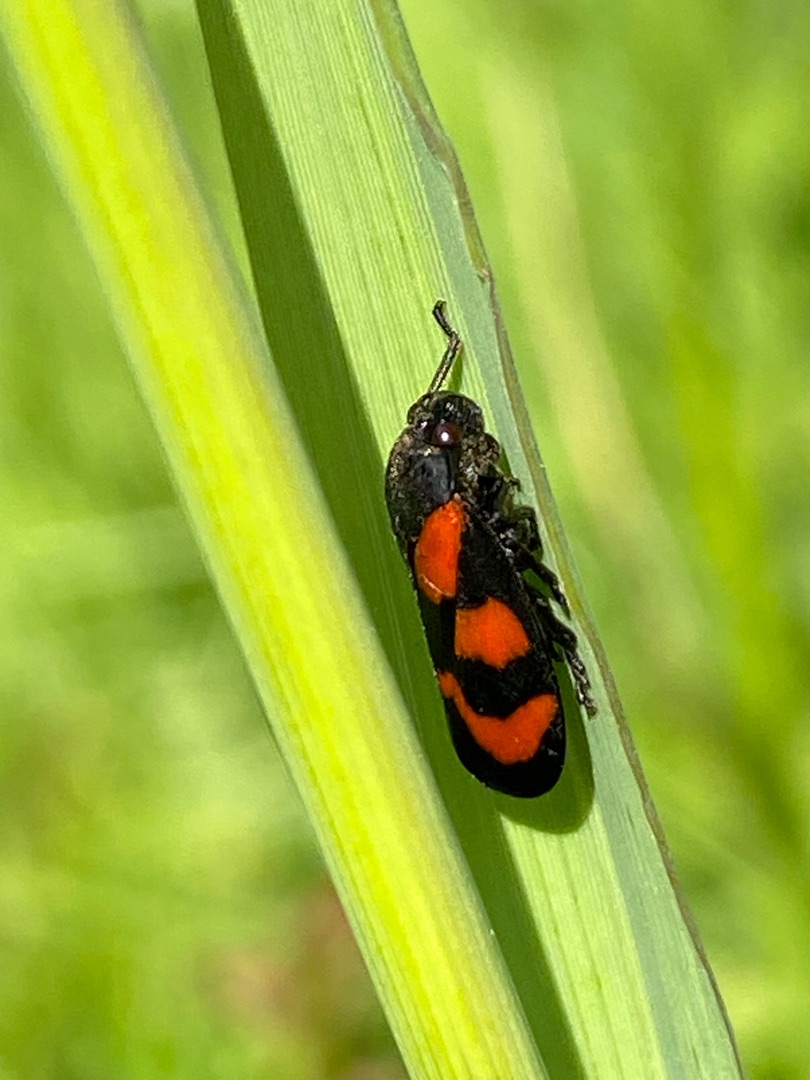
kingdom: Animalia
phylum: Arthropoda
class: Insecta
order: Hemiptera
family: Cercopidae
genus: Cercopis
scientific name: Cercopis vulnerata
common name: Blodcikade
